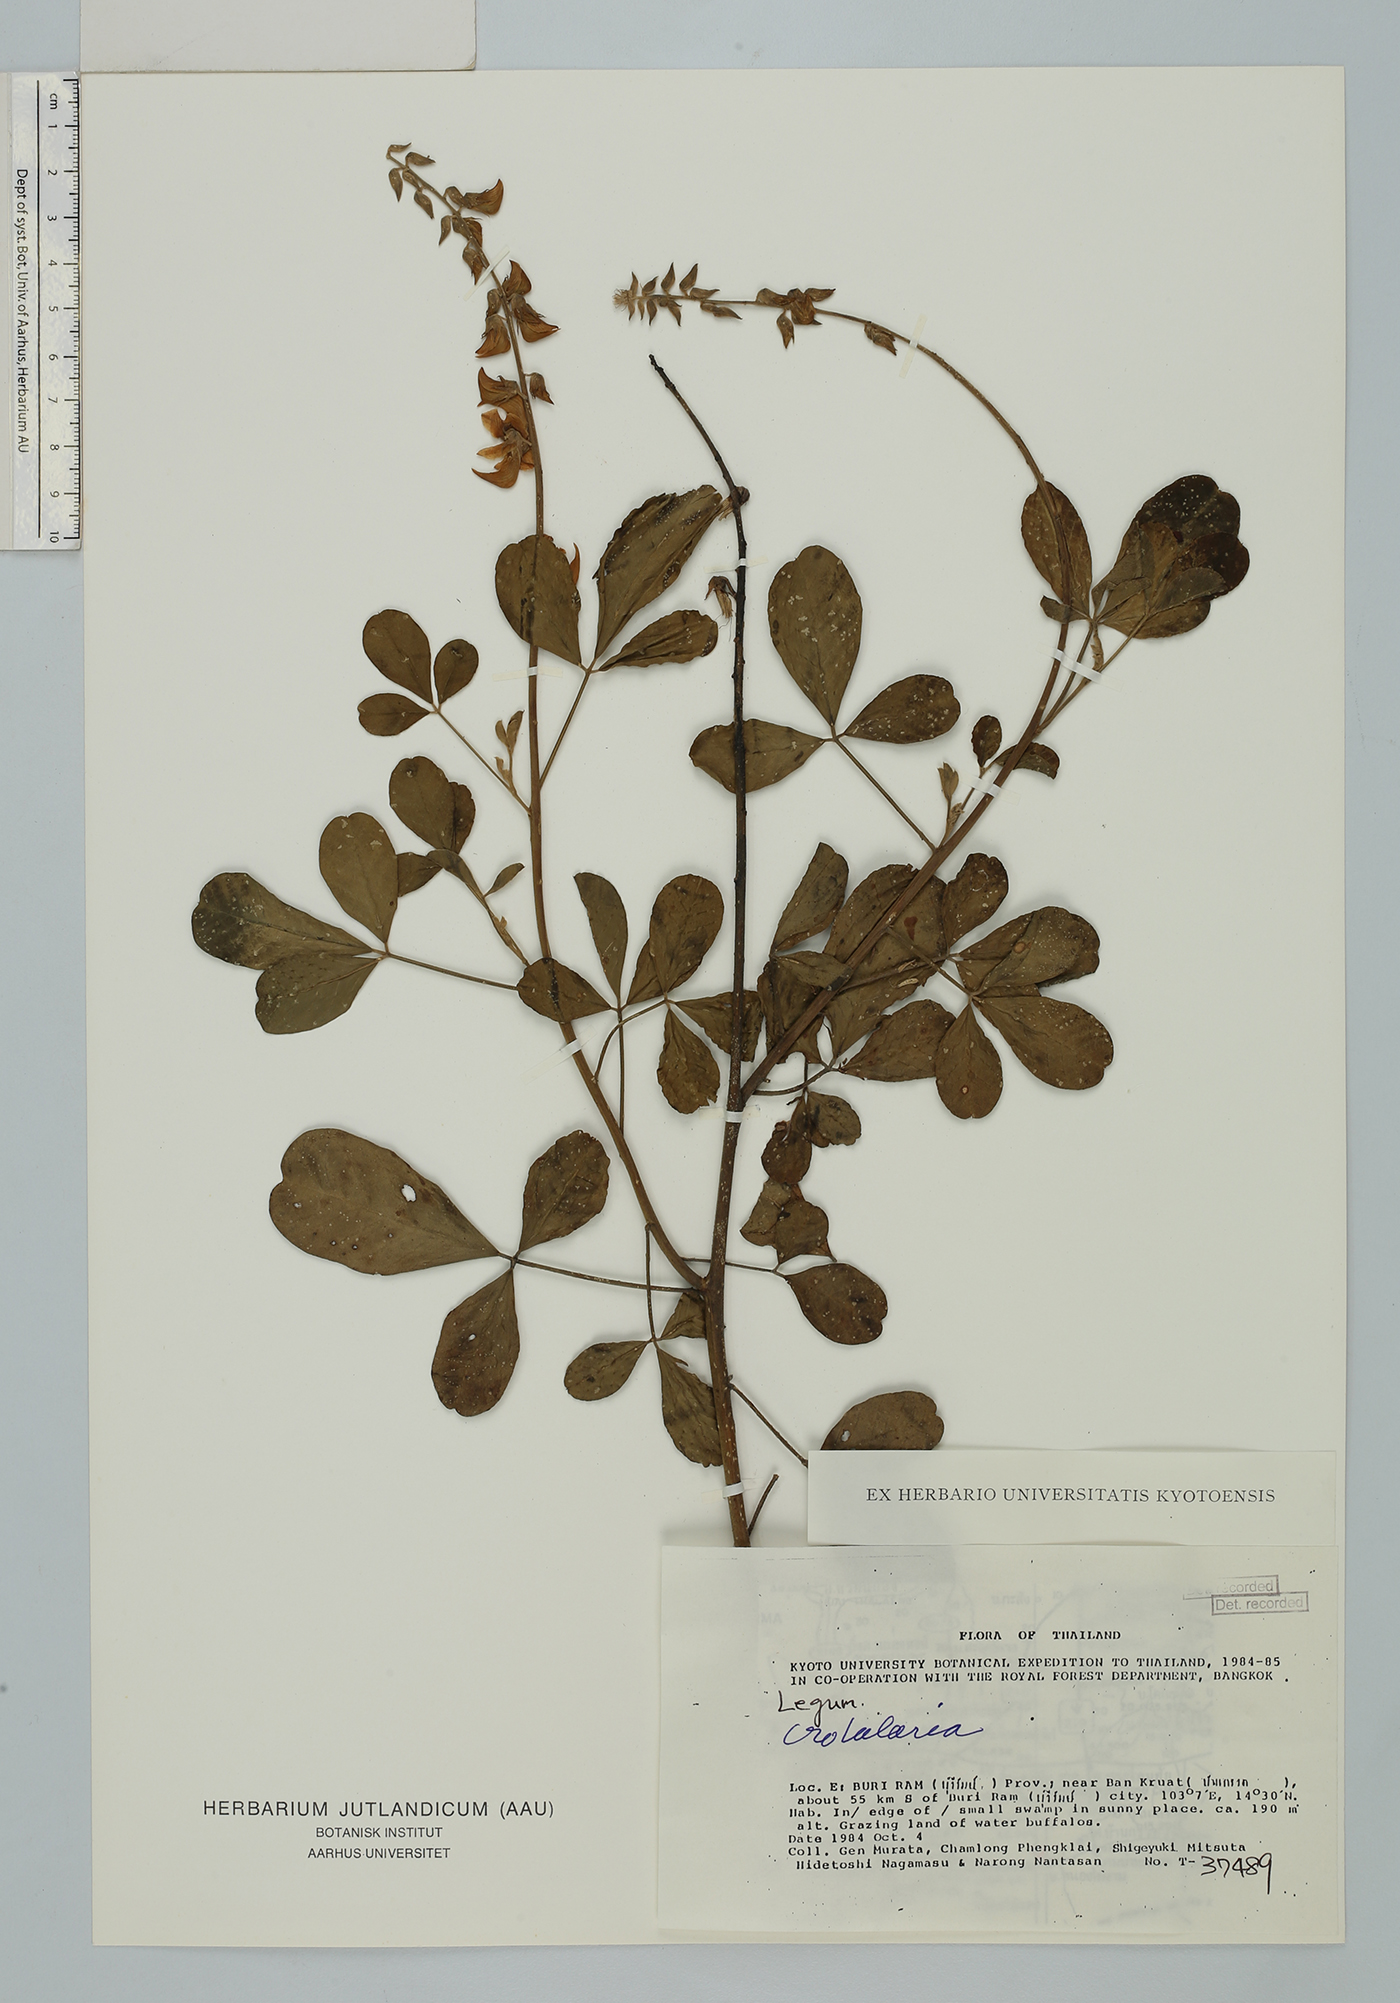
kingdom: Plantae
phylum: Tracheophyta
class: Magnoliopsida
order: Fabales
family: Fabaceae
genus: Crotalaria
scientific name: Crotalaria pallida
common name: Smooth rattlebox
